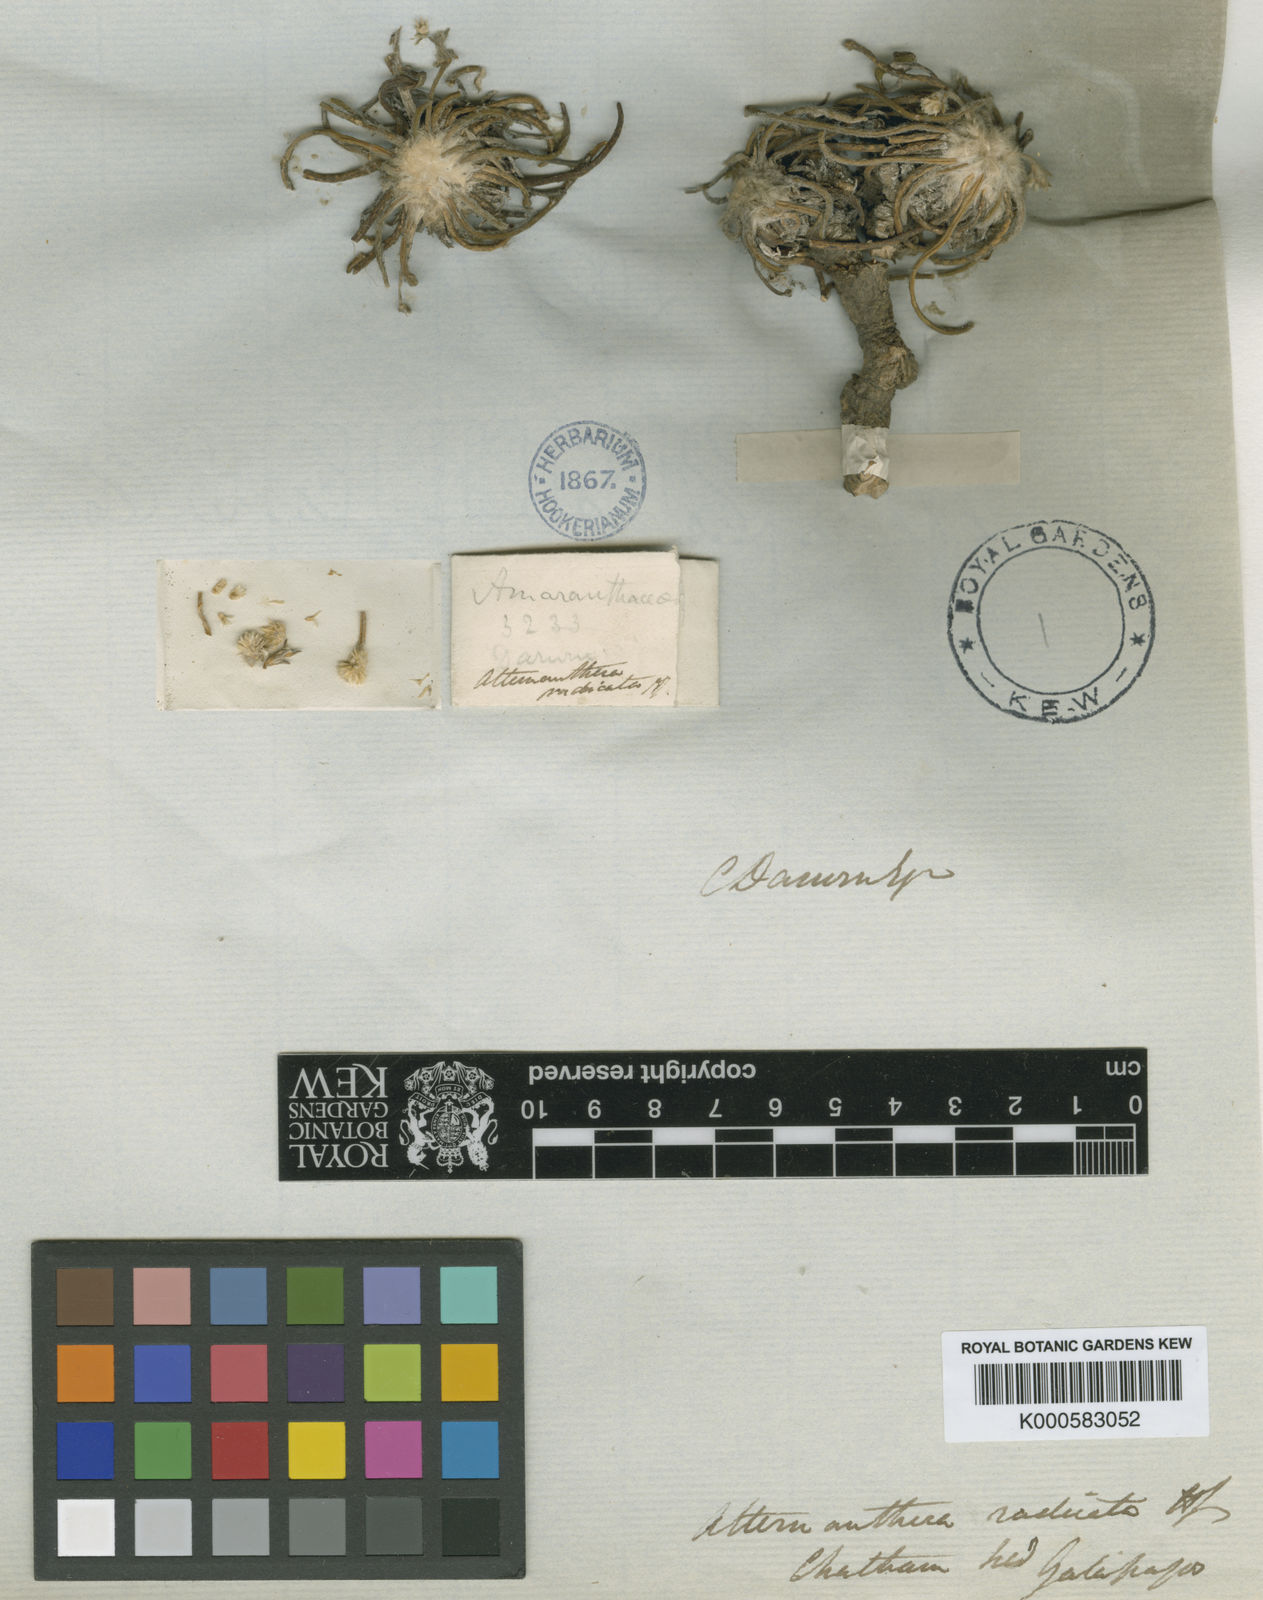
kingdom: Plantae
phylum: Tracheophyta
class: Magnoliopsida
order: Caryophyllales
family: Amaranthaceae
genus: Gomphrena
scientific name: Gomphrena radicata
